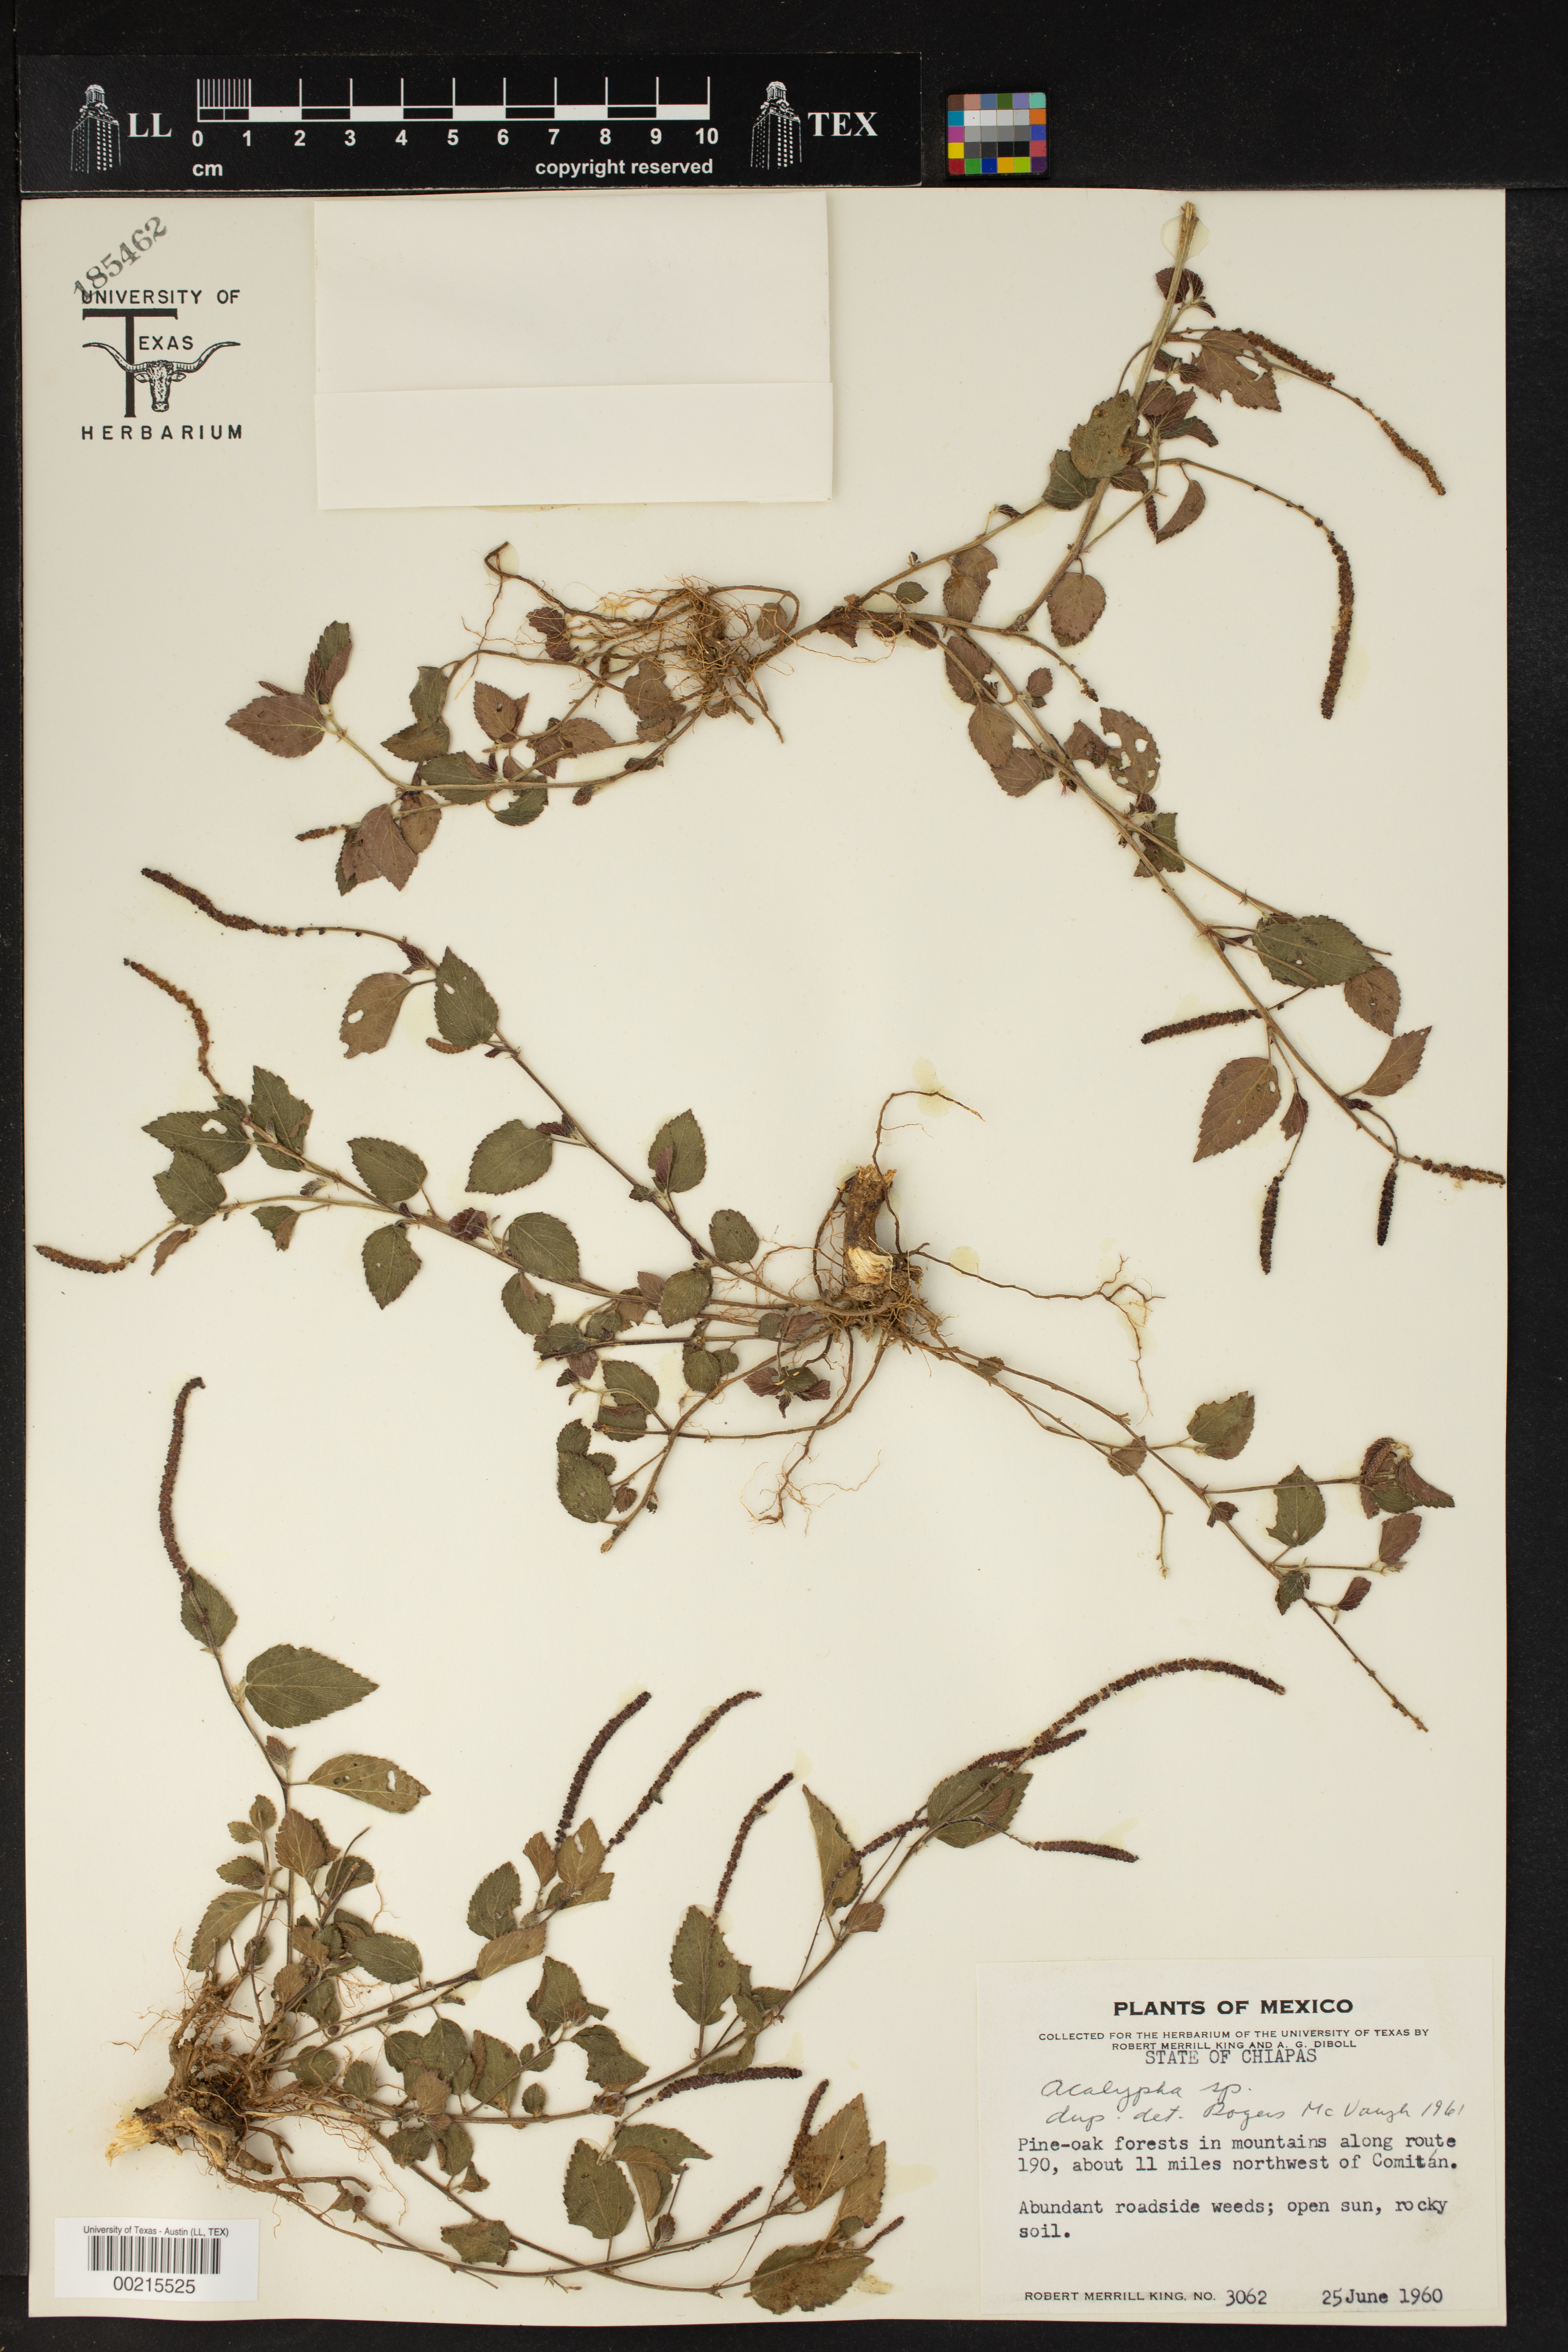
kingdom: Plantae
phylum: Tracheophyta
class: Magnoliopsida
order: Malpighiales
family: Euphorbiaceae
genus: Acalypha
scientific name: Acalypha botteriana
